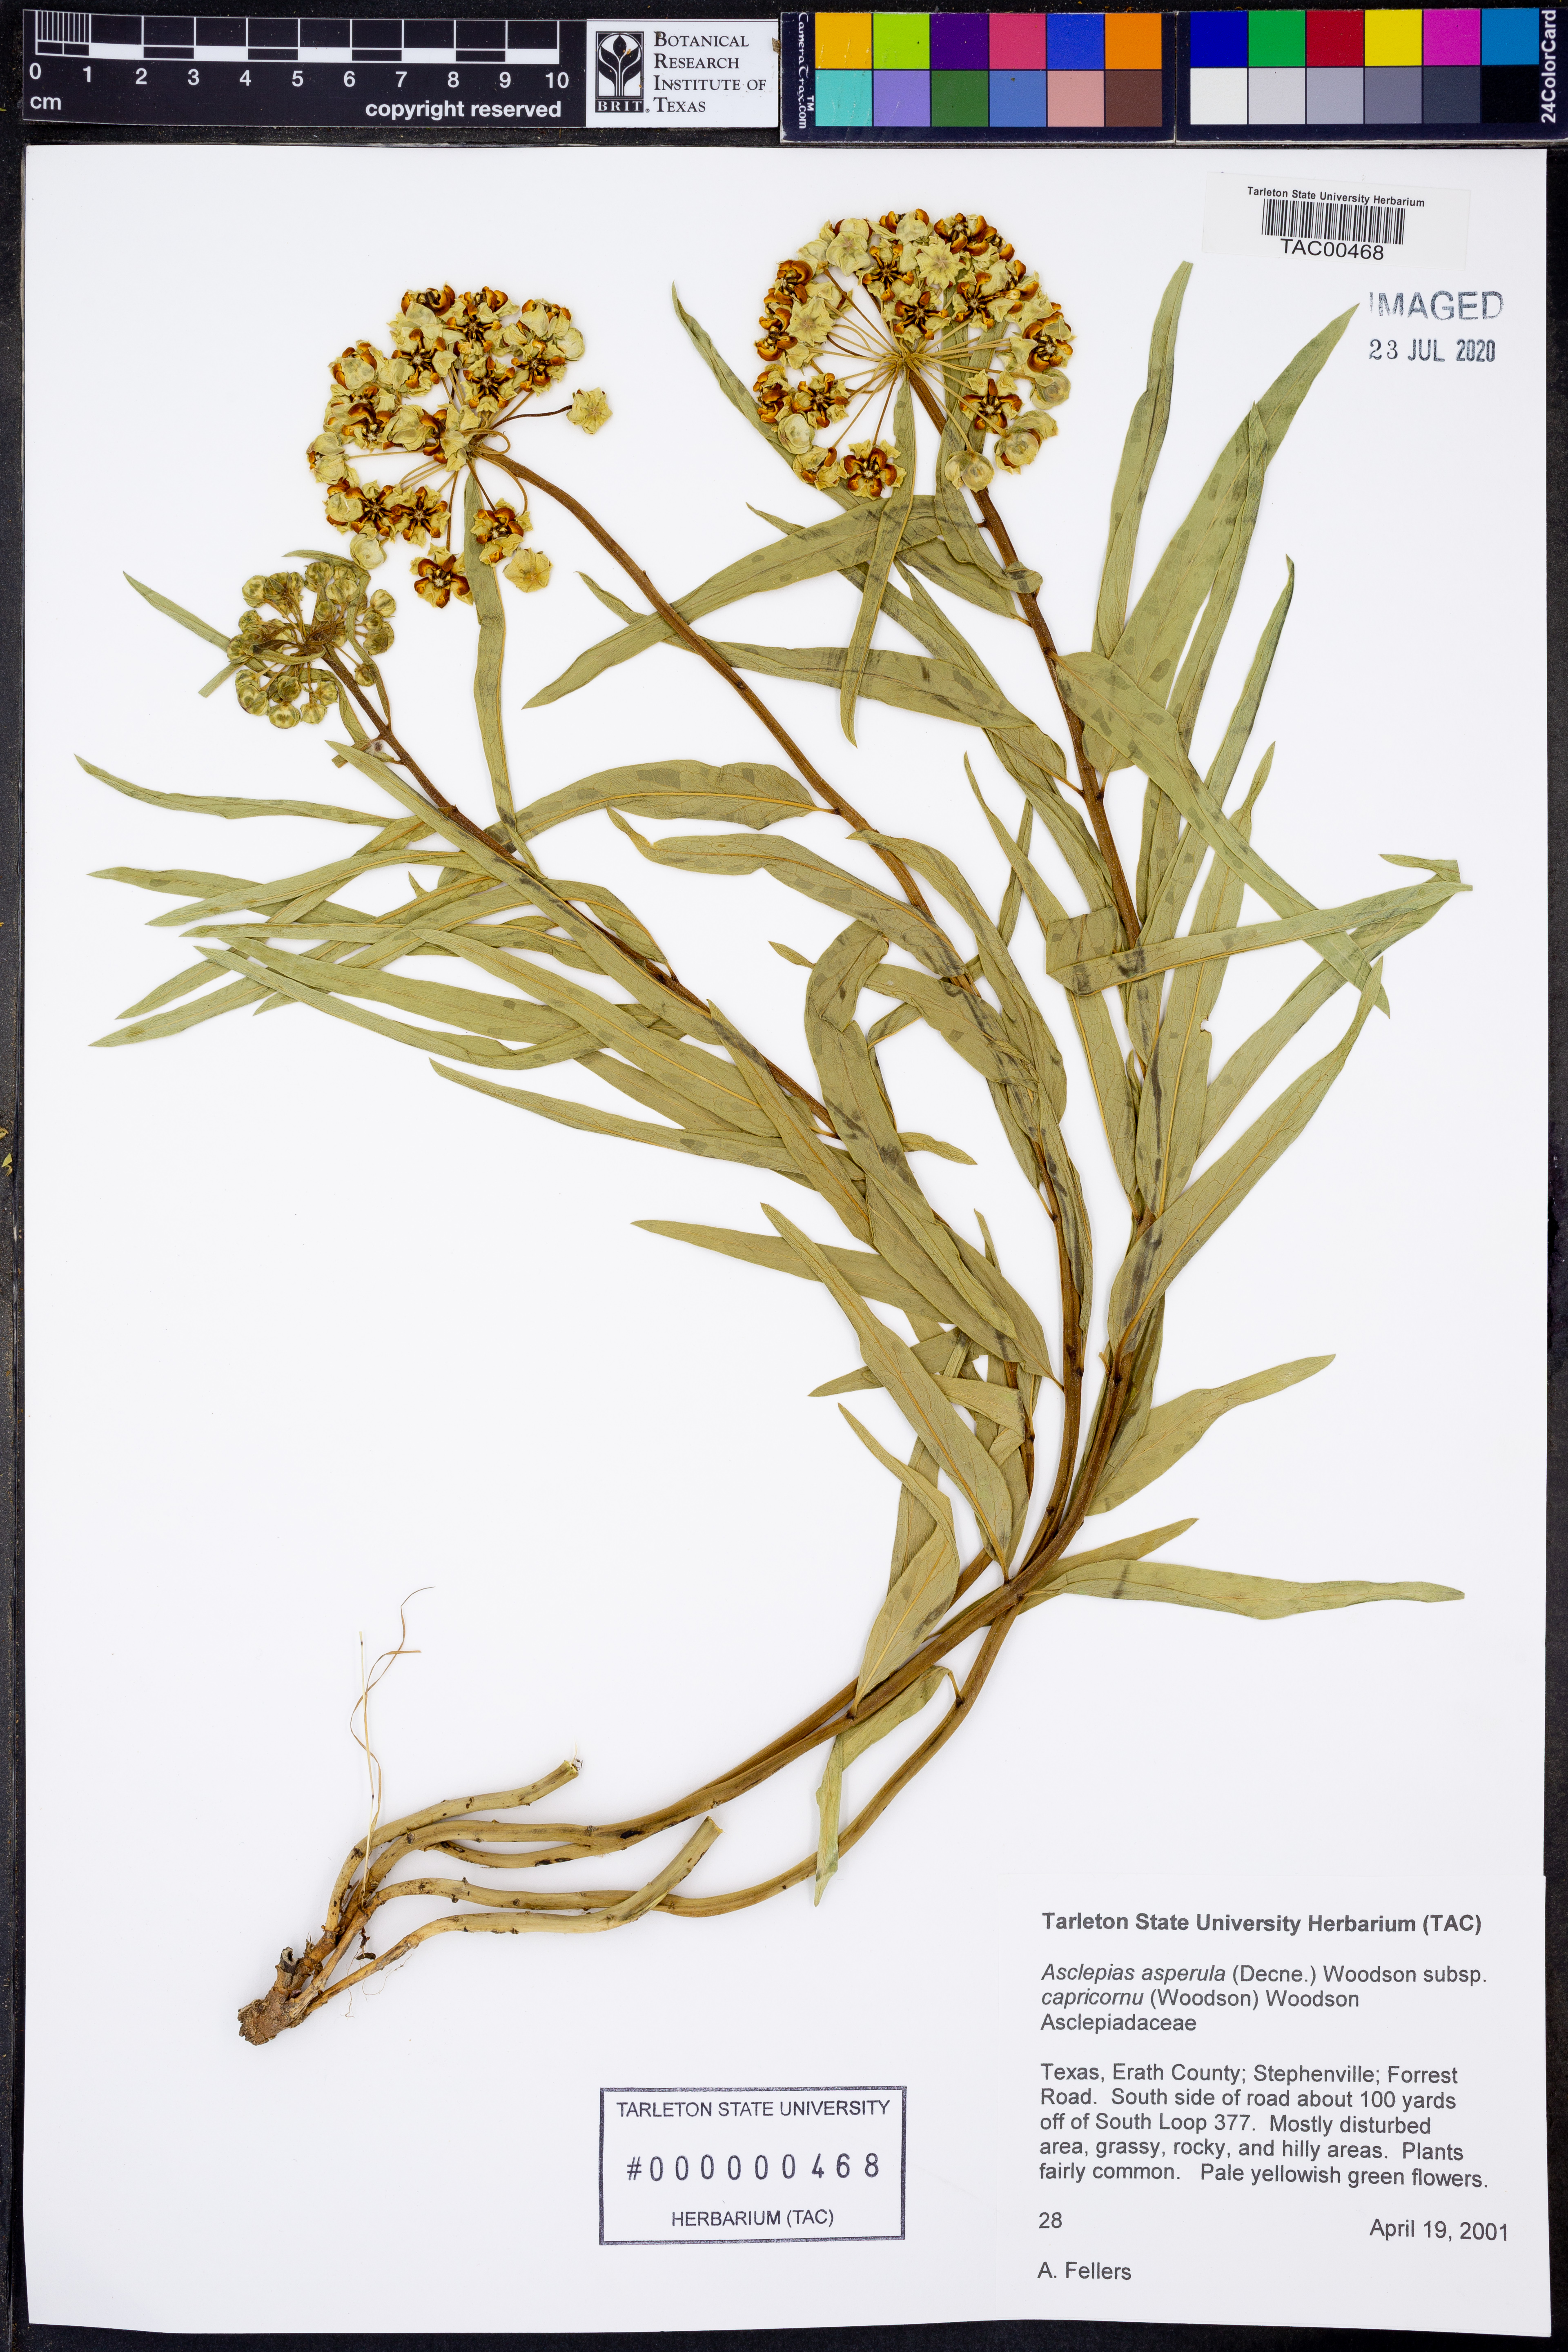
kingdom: Plantae
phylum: Tracheophyta
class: Magnoliopsida
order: Gentianales
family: Apocynaceae
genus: Asclepias
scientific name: Asclepias asperula
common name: Antelope horns
